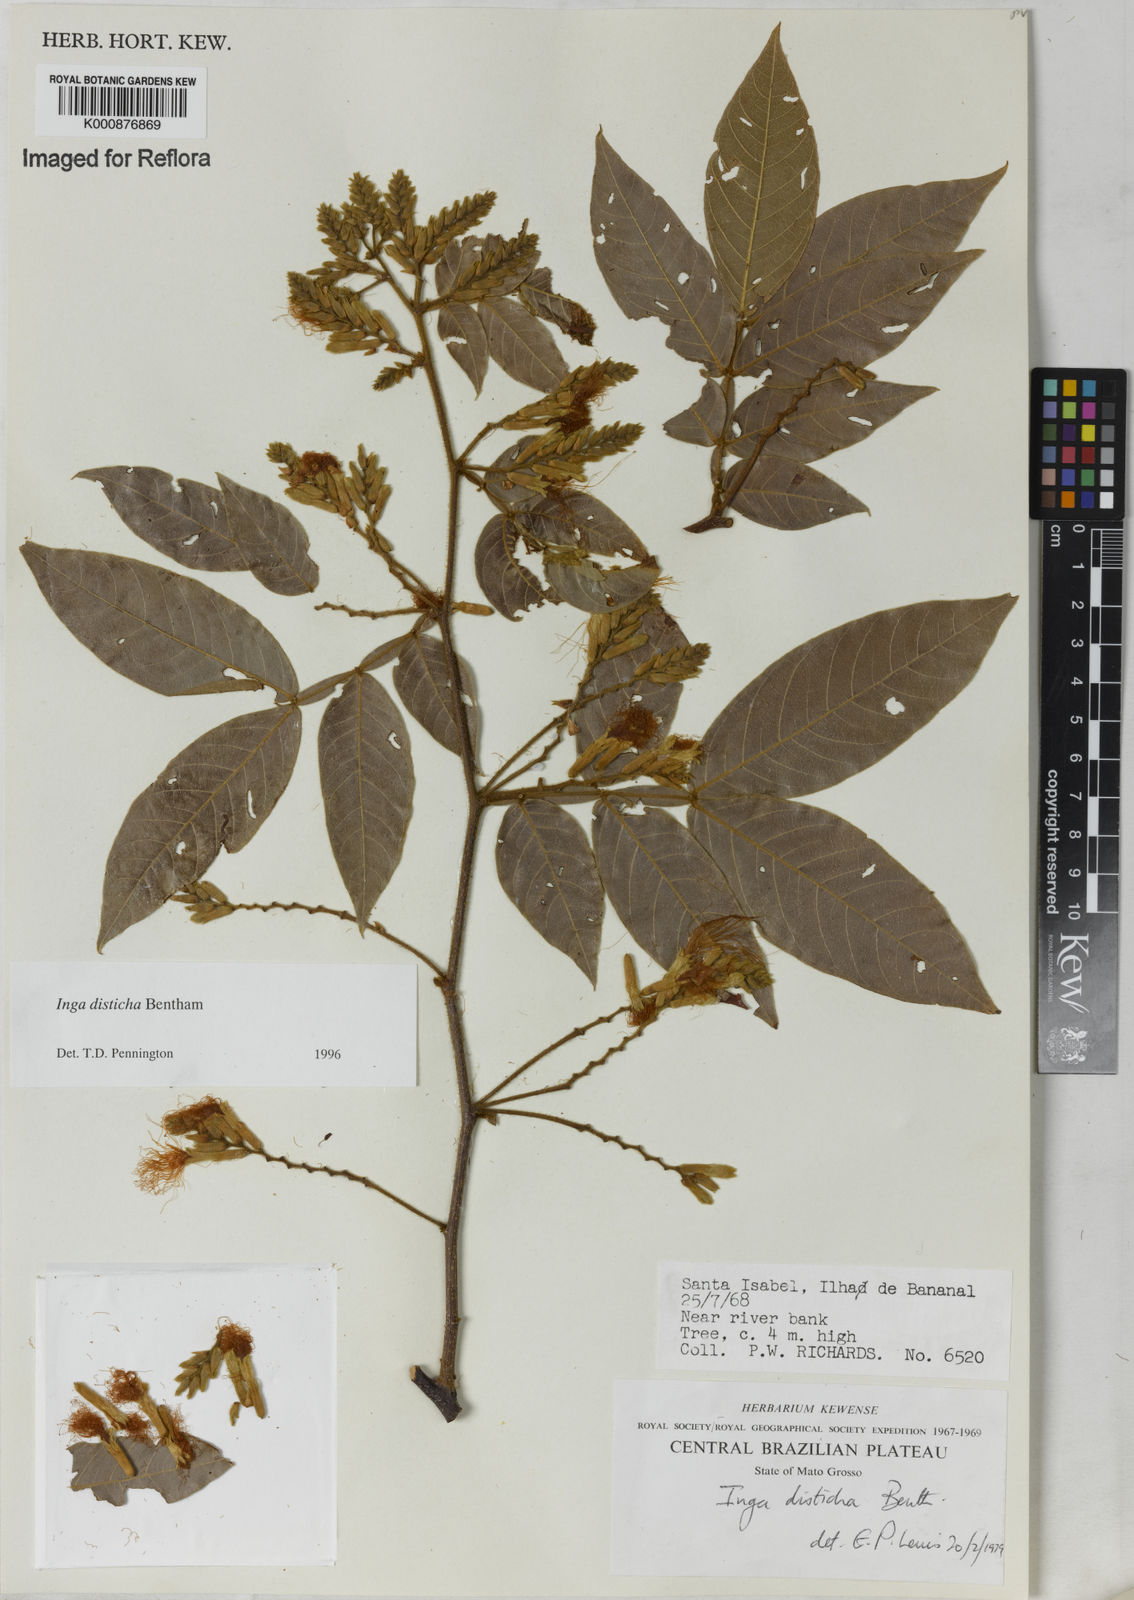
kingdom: Plantae
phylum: Tracheophyta
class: Magnoliopsida
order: Fabales
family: Fabaceae
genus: Inga
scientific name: Inga disticha
